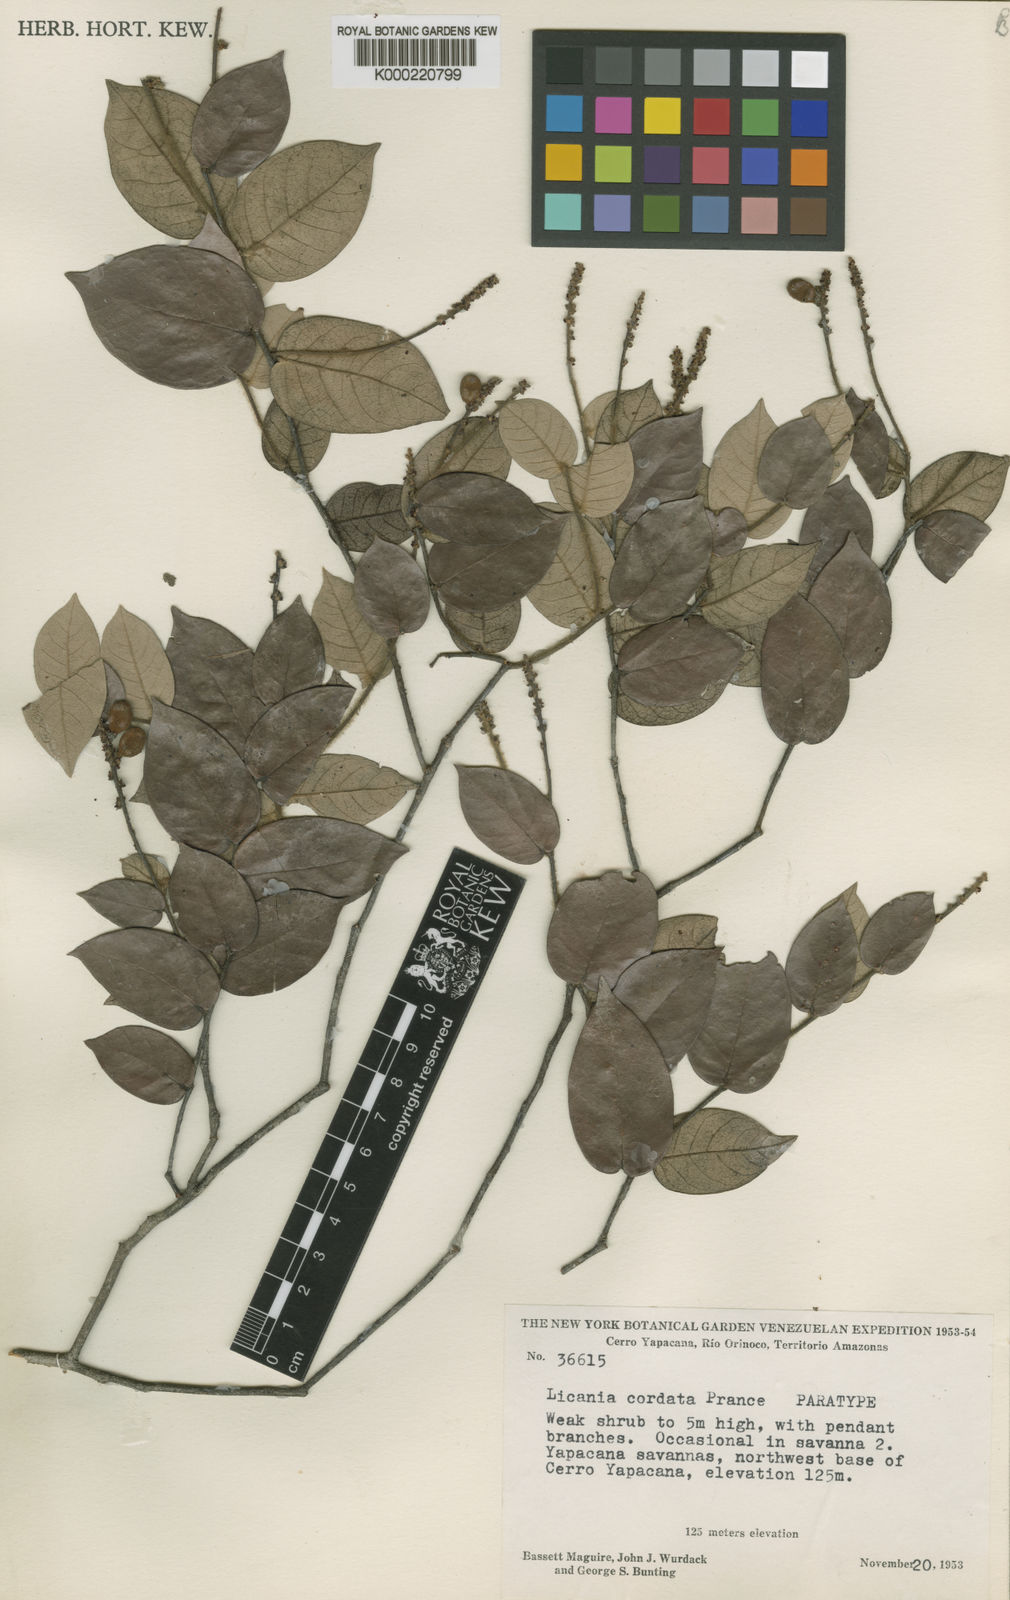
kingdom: Plantae
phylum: Tracheophyta
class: Magnoliopsida
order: Malpighiales
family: Chrysobalanaceae
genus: Licania
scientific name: Licania cordata
